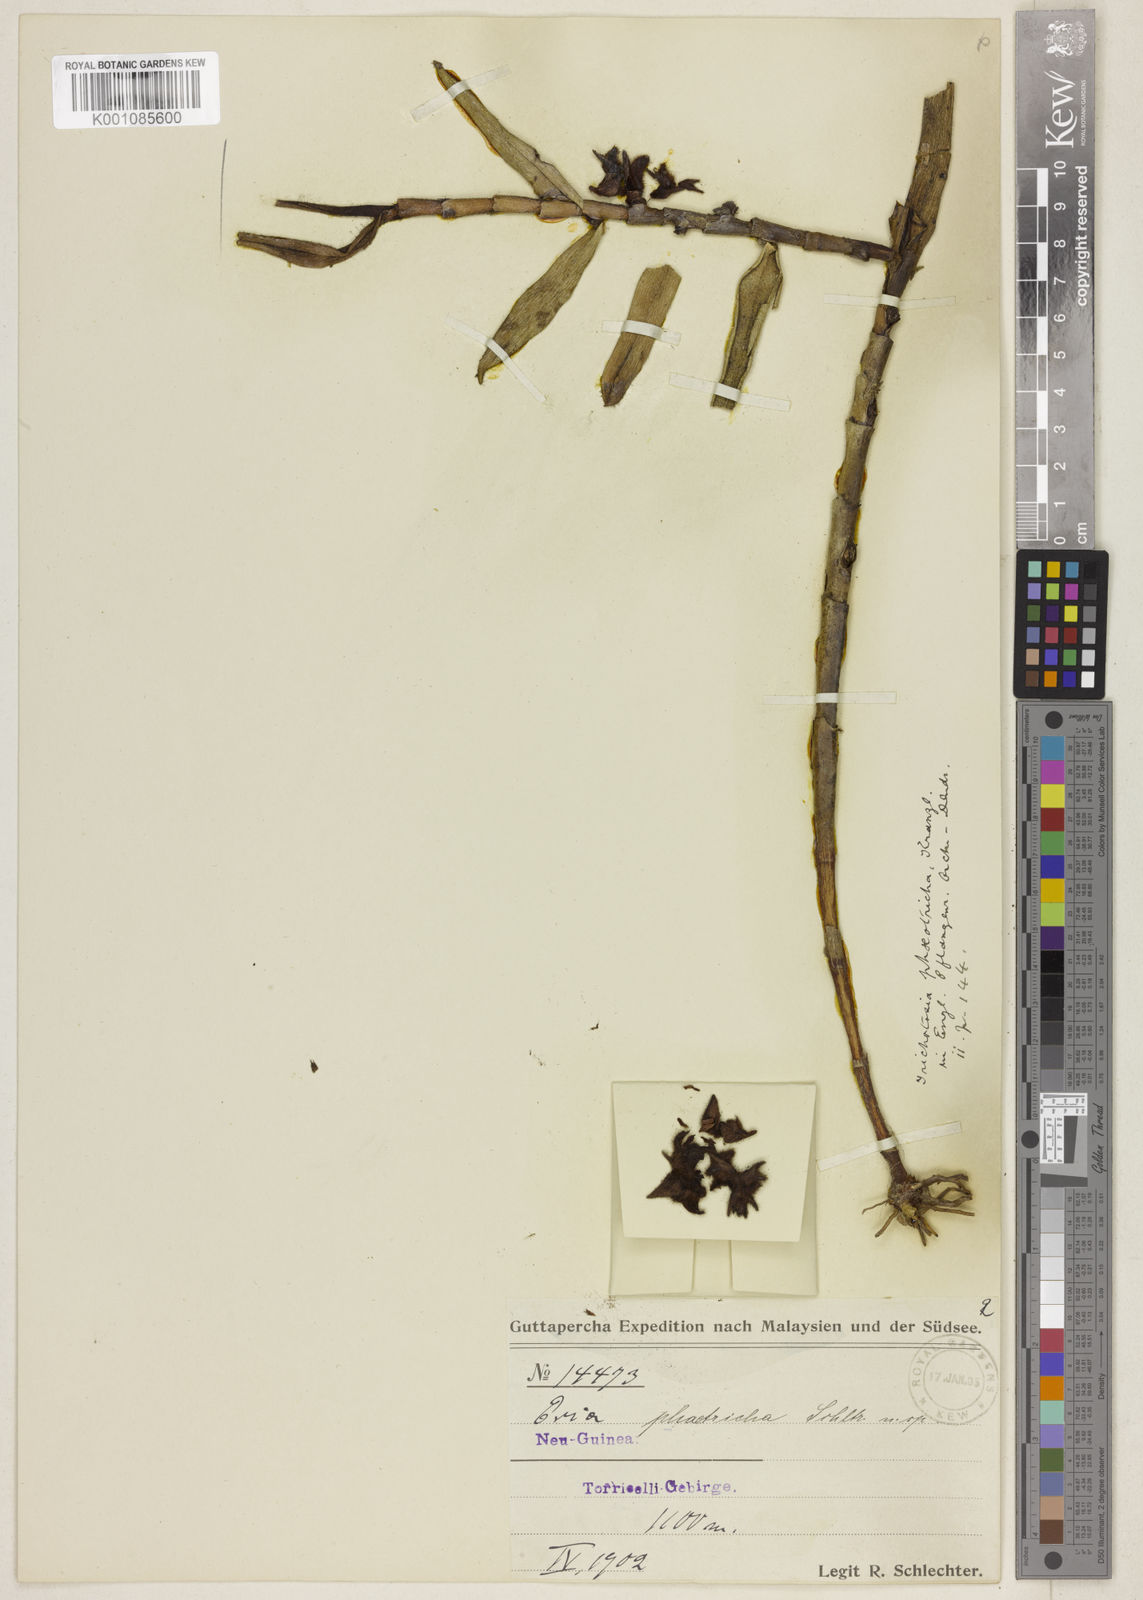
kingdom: Plantae
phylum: Tracheophyta
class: Liliopsida
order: Asparagales
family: Orchidaceae
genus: Trichotosia
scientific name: Trichotosia phaeotricha
